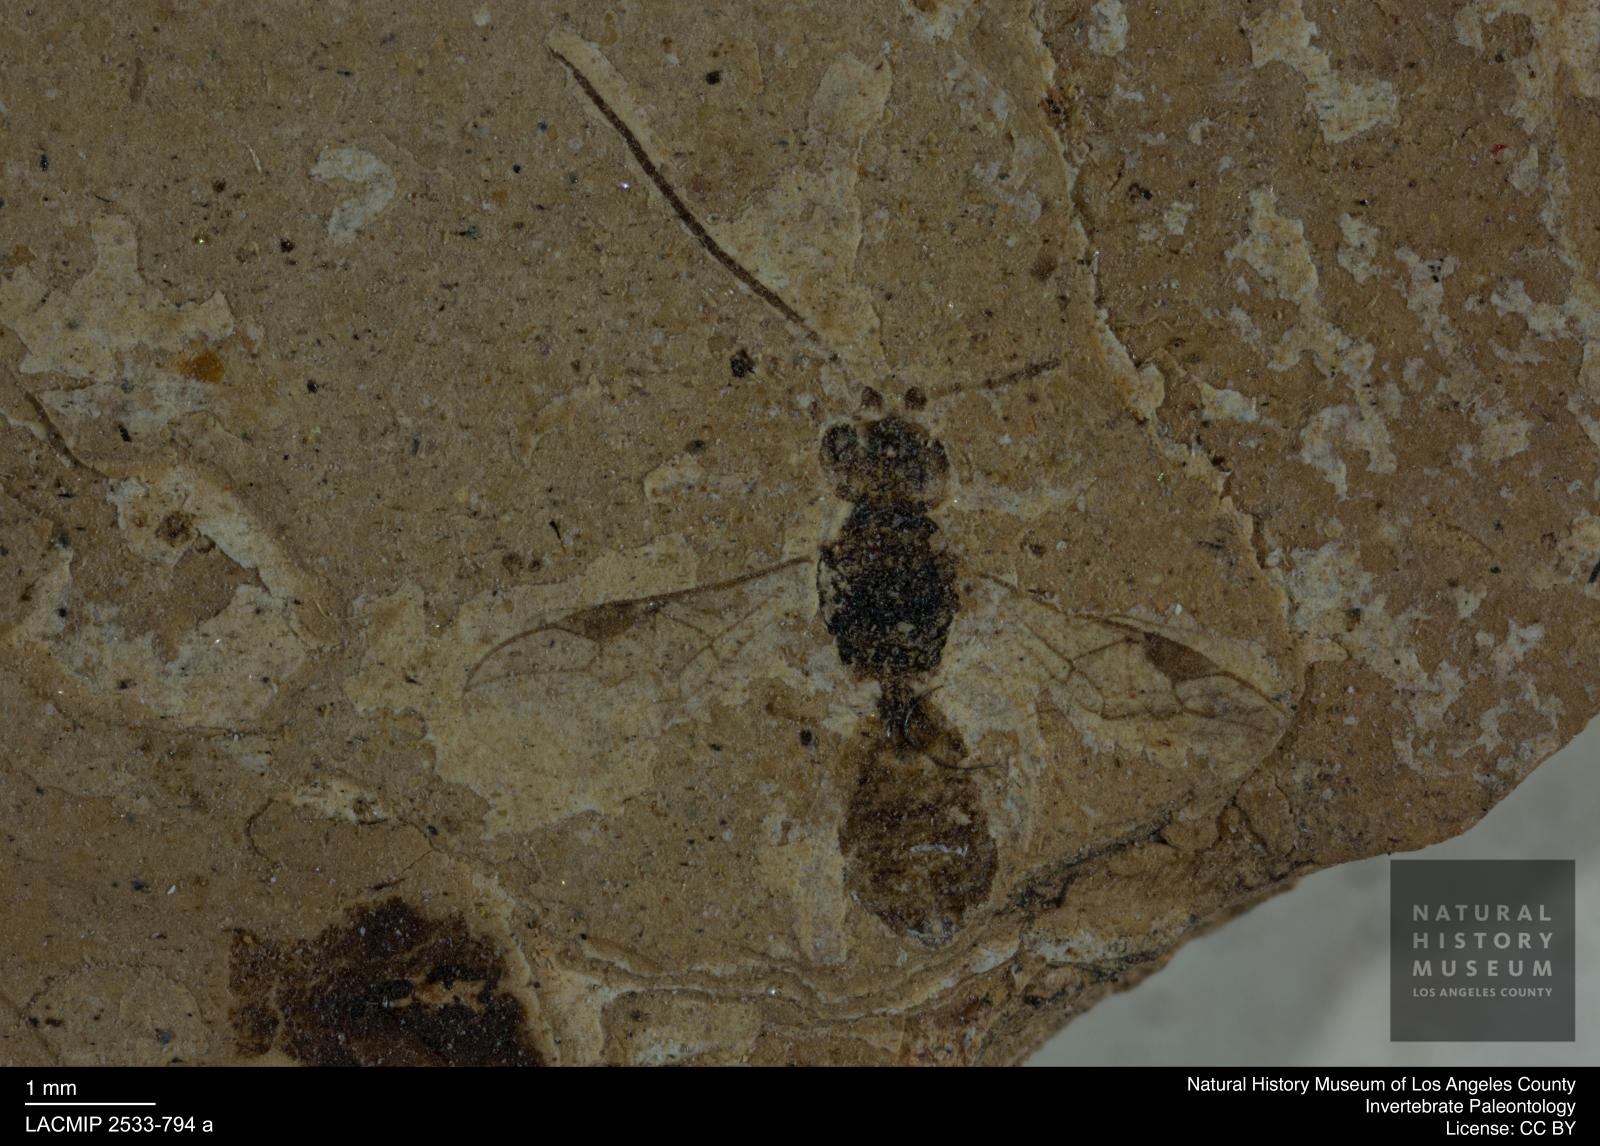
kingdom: Animalia
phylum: Arthropoda
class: Insecta
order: Hymenoptera
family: Braconidae
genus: Aspicolpus
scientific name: Aspicolpus longicornis
